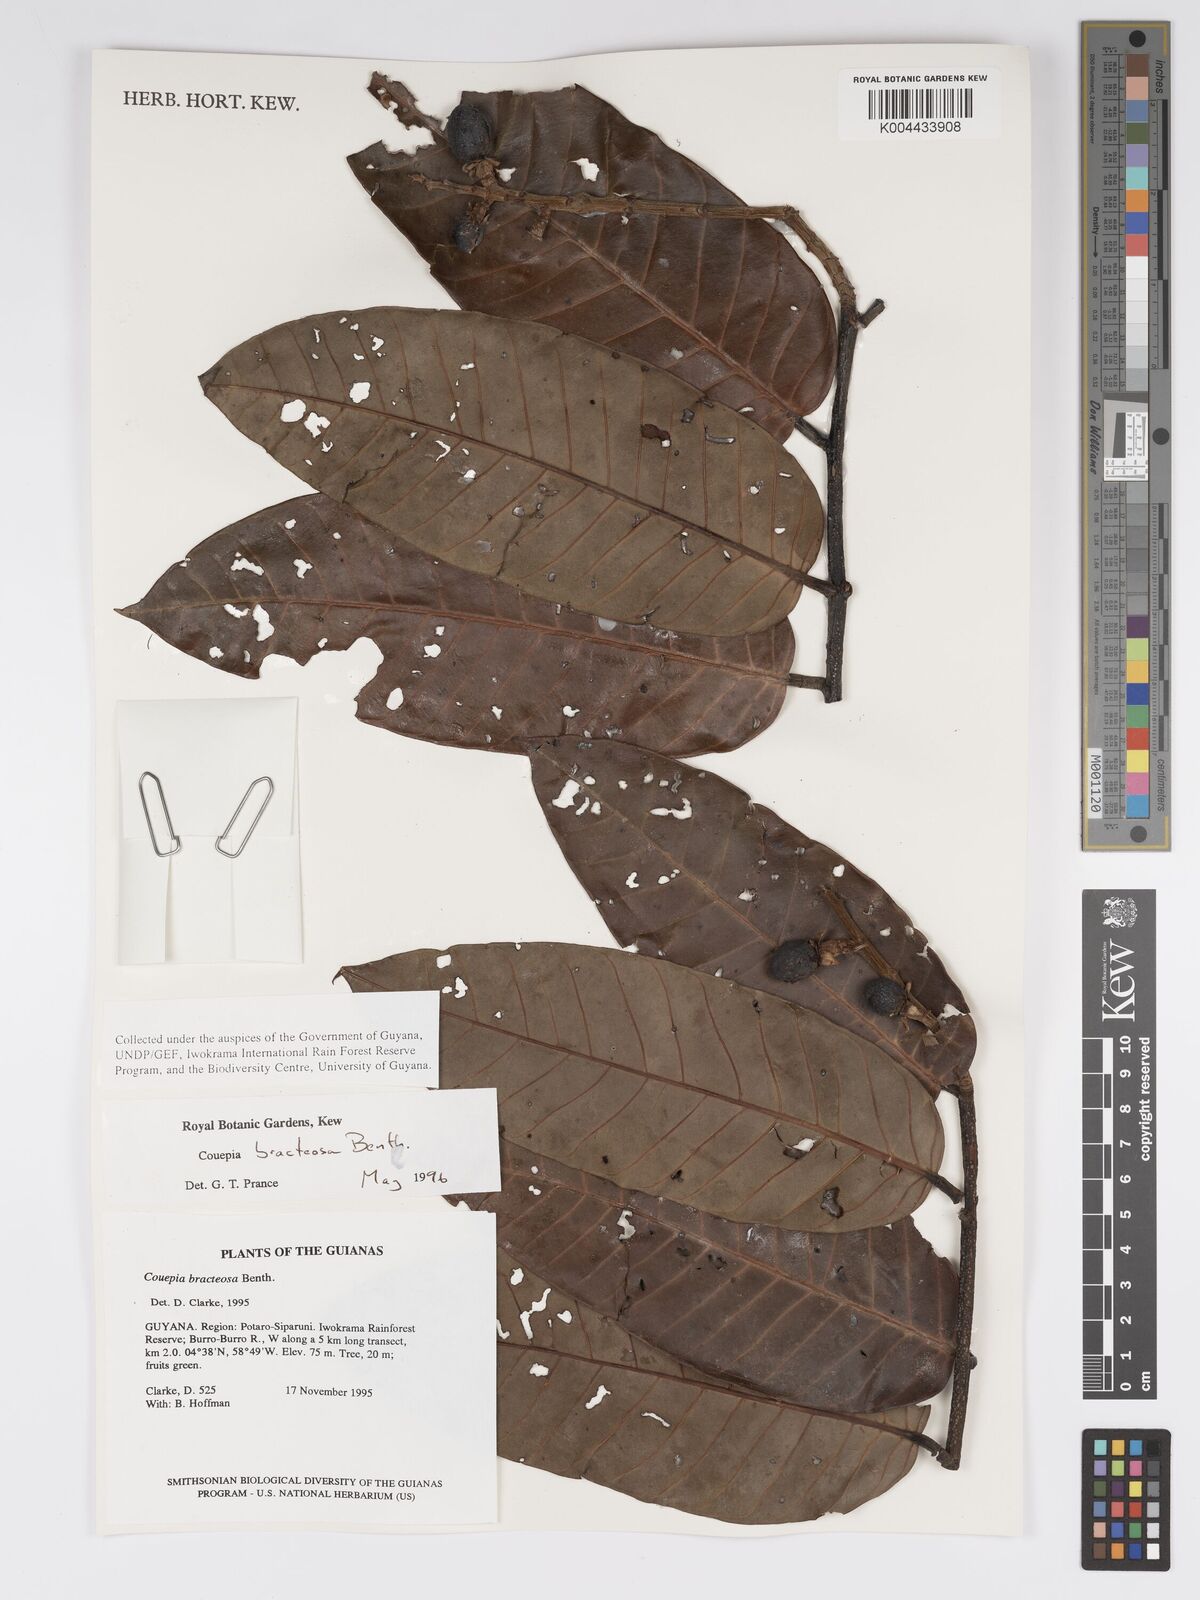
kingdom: Plantae
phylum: Tracheophyta
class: Magnoliopsida
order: Malpighiales
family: Chrysobalanaceae
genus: Couepia
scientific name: Couepia bracteosa
